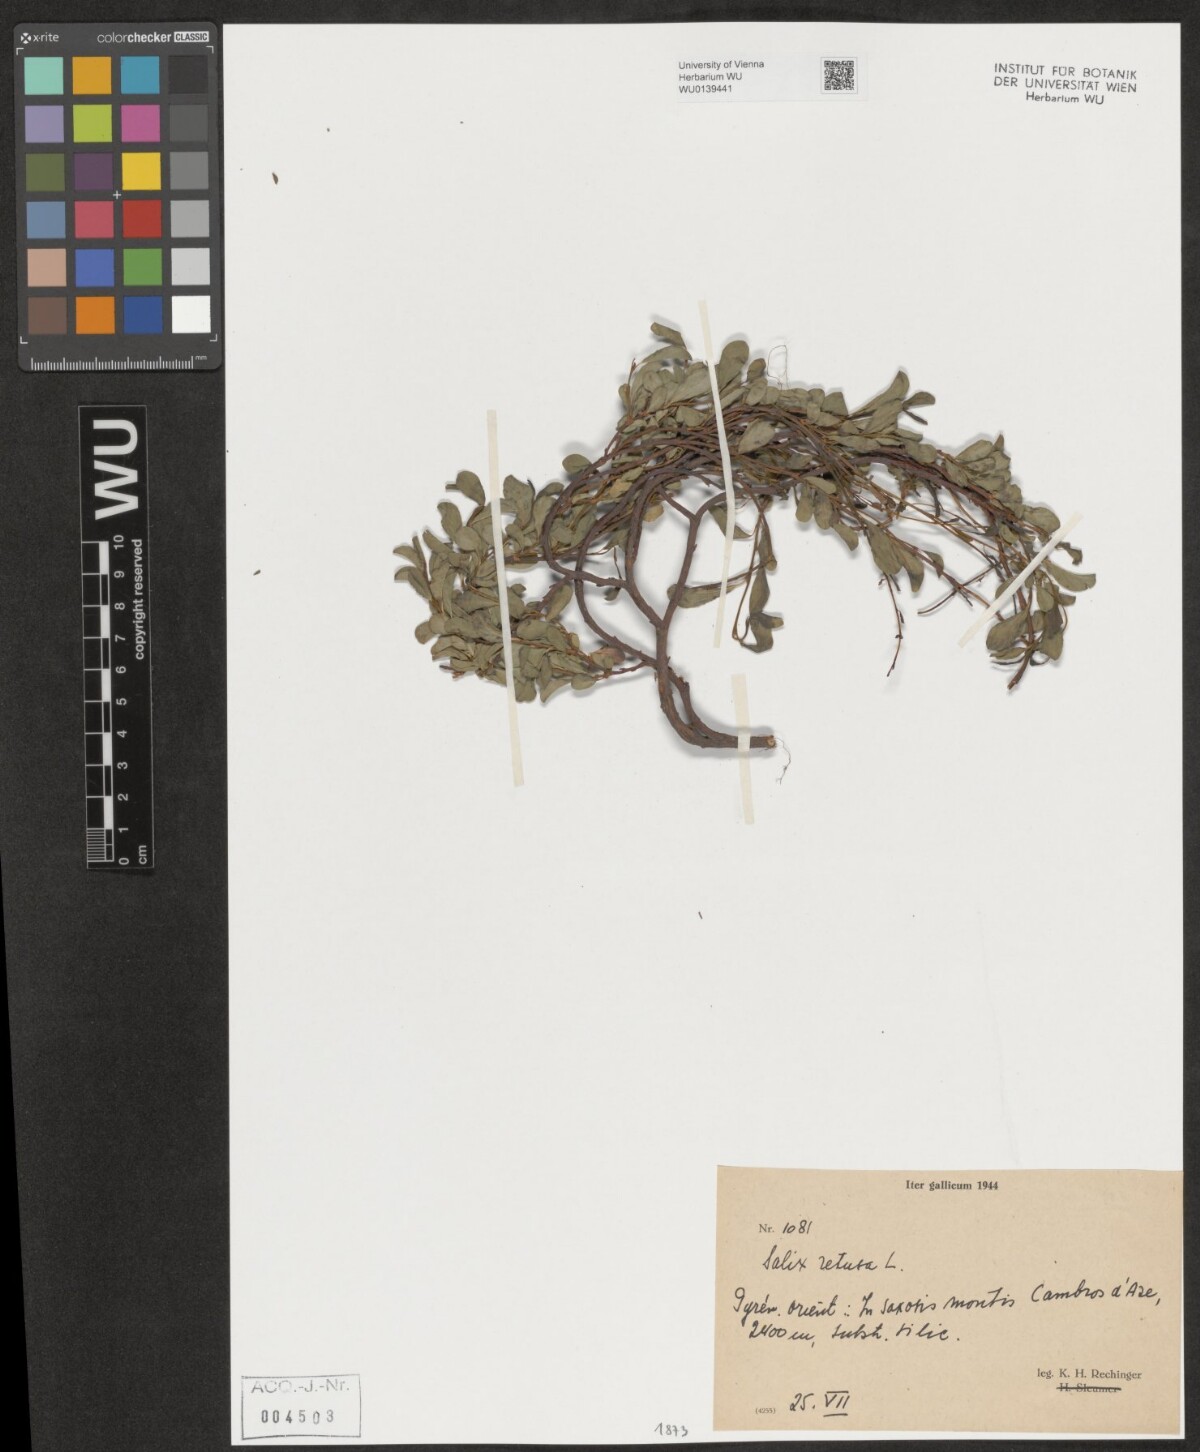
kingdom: Plantae
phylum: Tracheophyta
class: Magnoliopsida
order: Malpighiales
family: Salicaceae
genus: Salix
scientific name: Salix retusa
